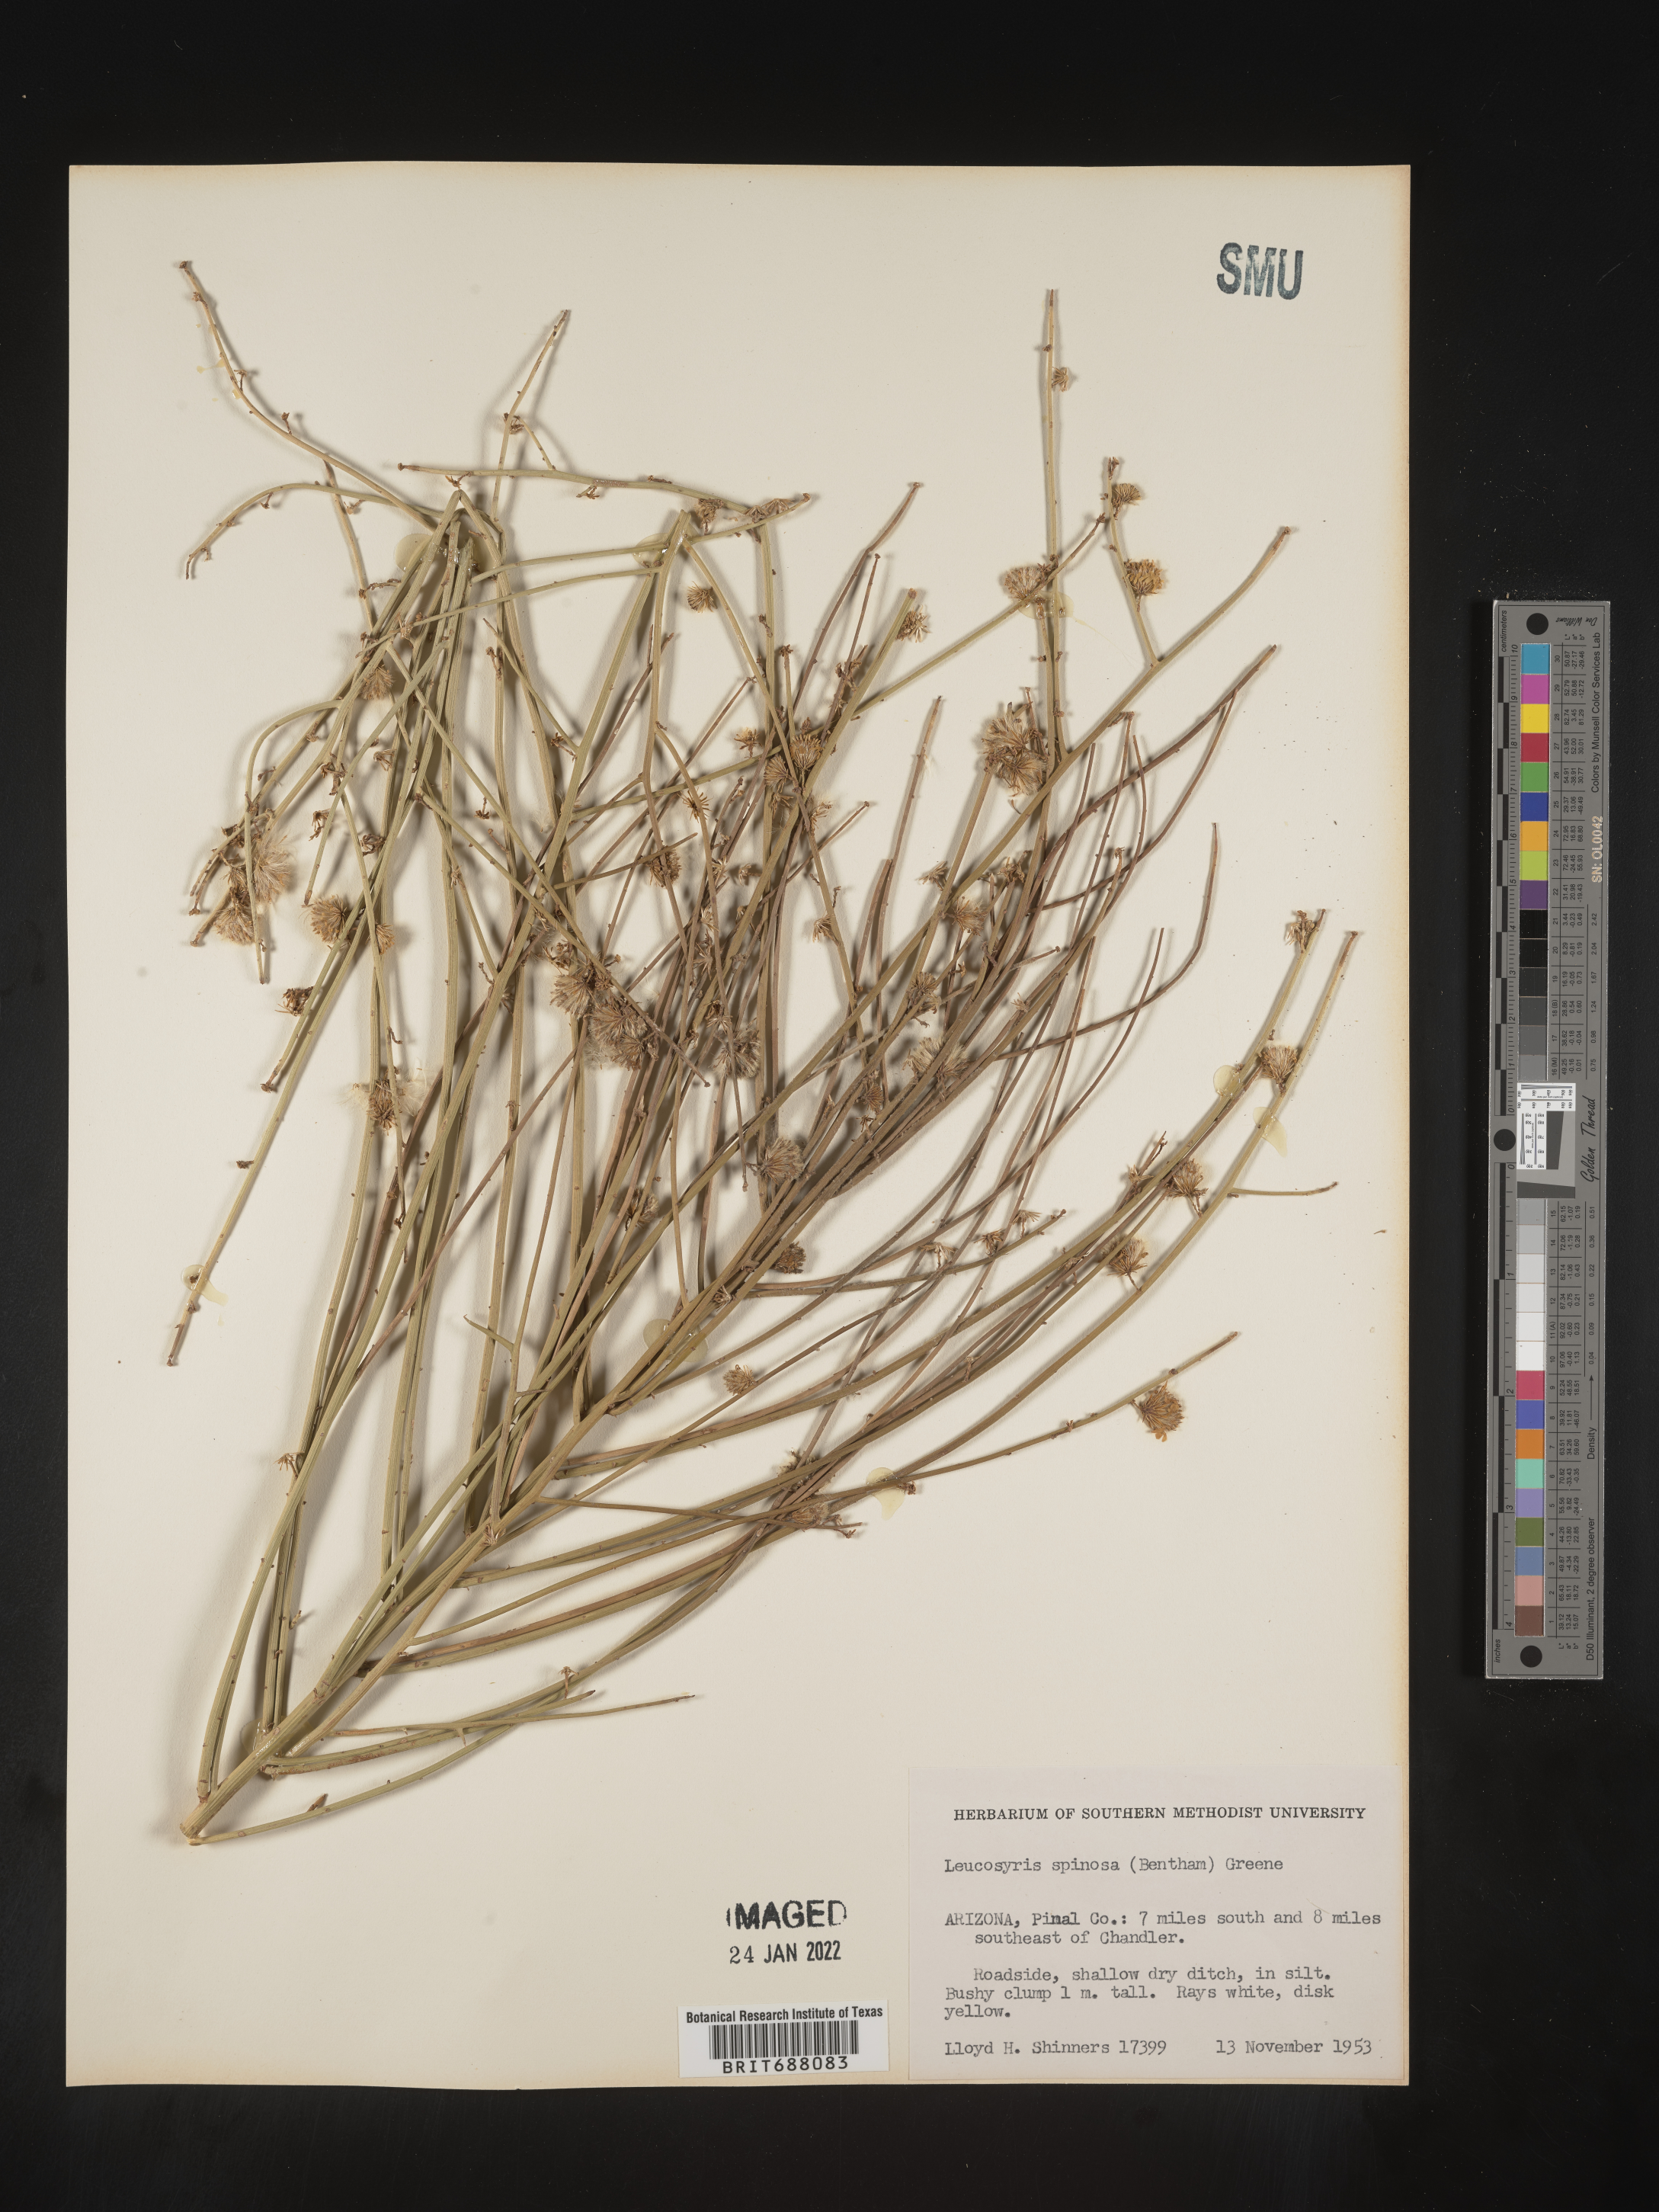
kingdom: Plantae
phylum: Tracheophyta
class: Magnoliopsida
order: Asterales
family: Asteraceae
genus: Chloracantha
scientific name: Chloracantha spinosa
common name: Mexican devilweed
